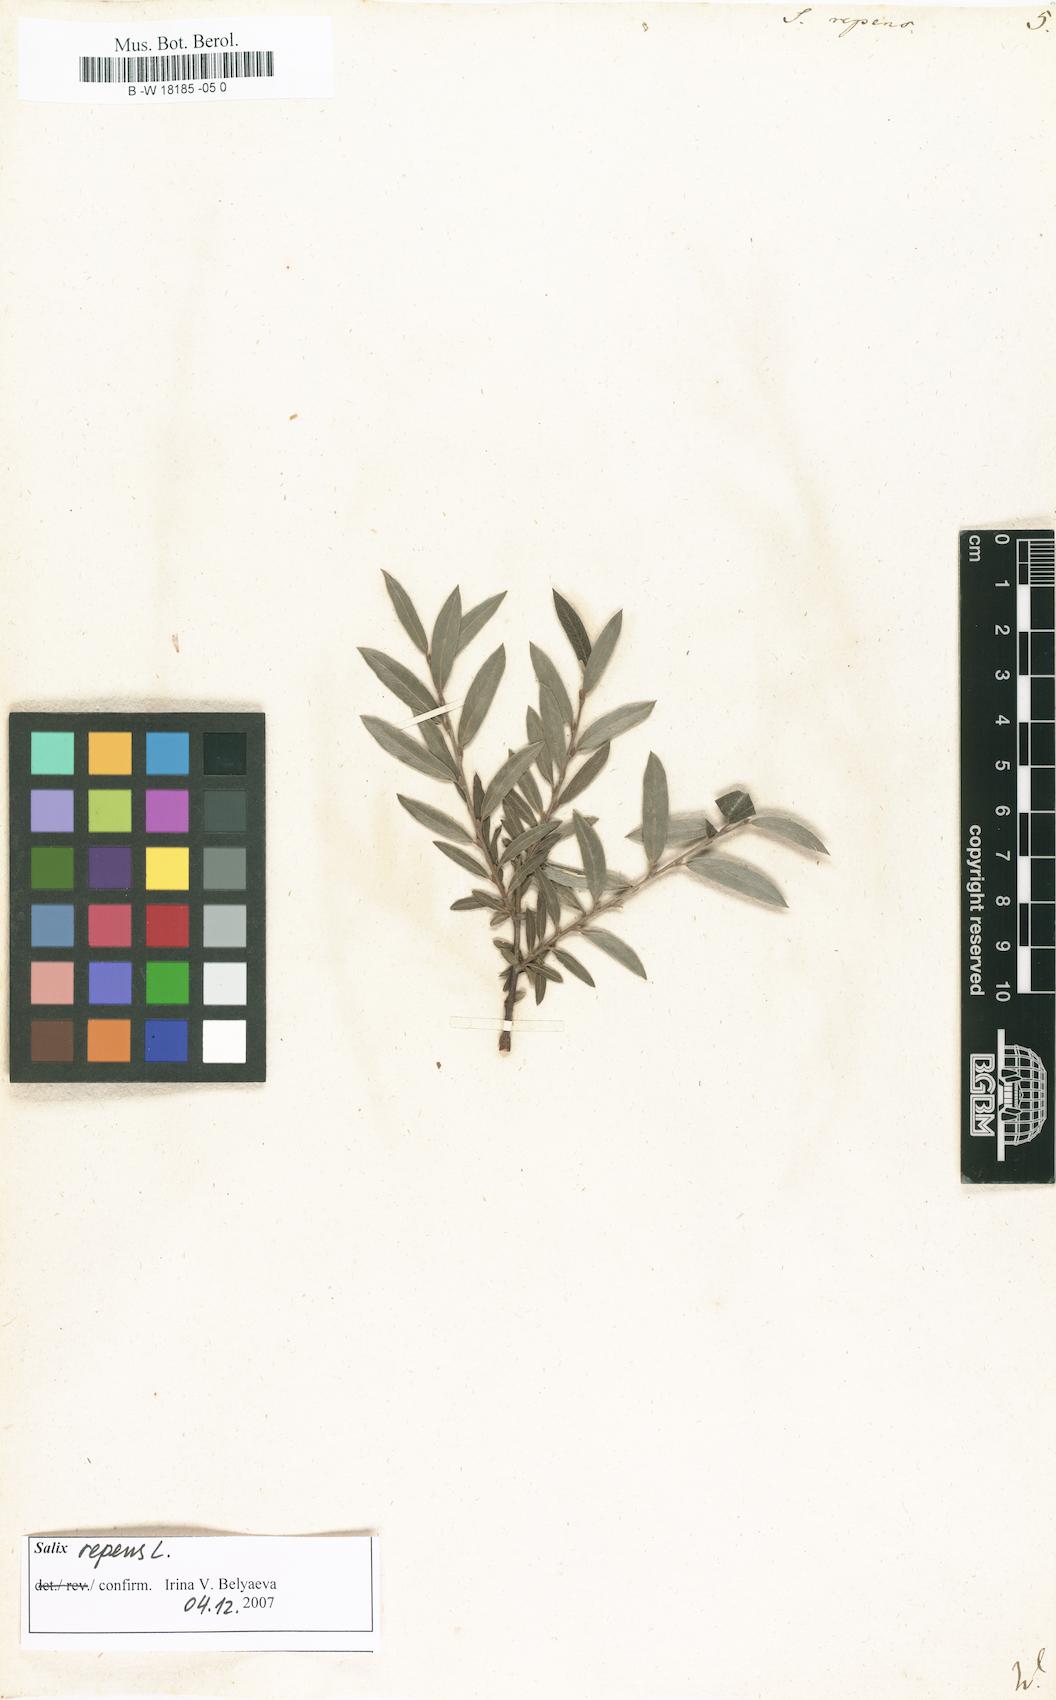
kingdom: Plantae
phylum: Tracheophyta
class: Magnoliopsida
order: Malpighiales
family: Salicaceae
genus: Salix
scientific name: Salix repens
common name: Creeping willow
